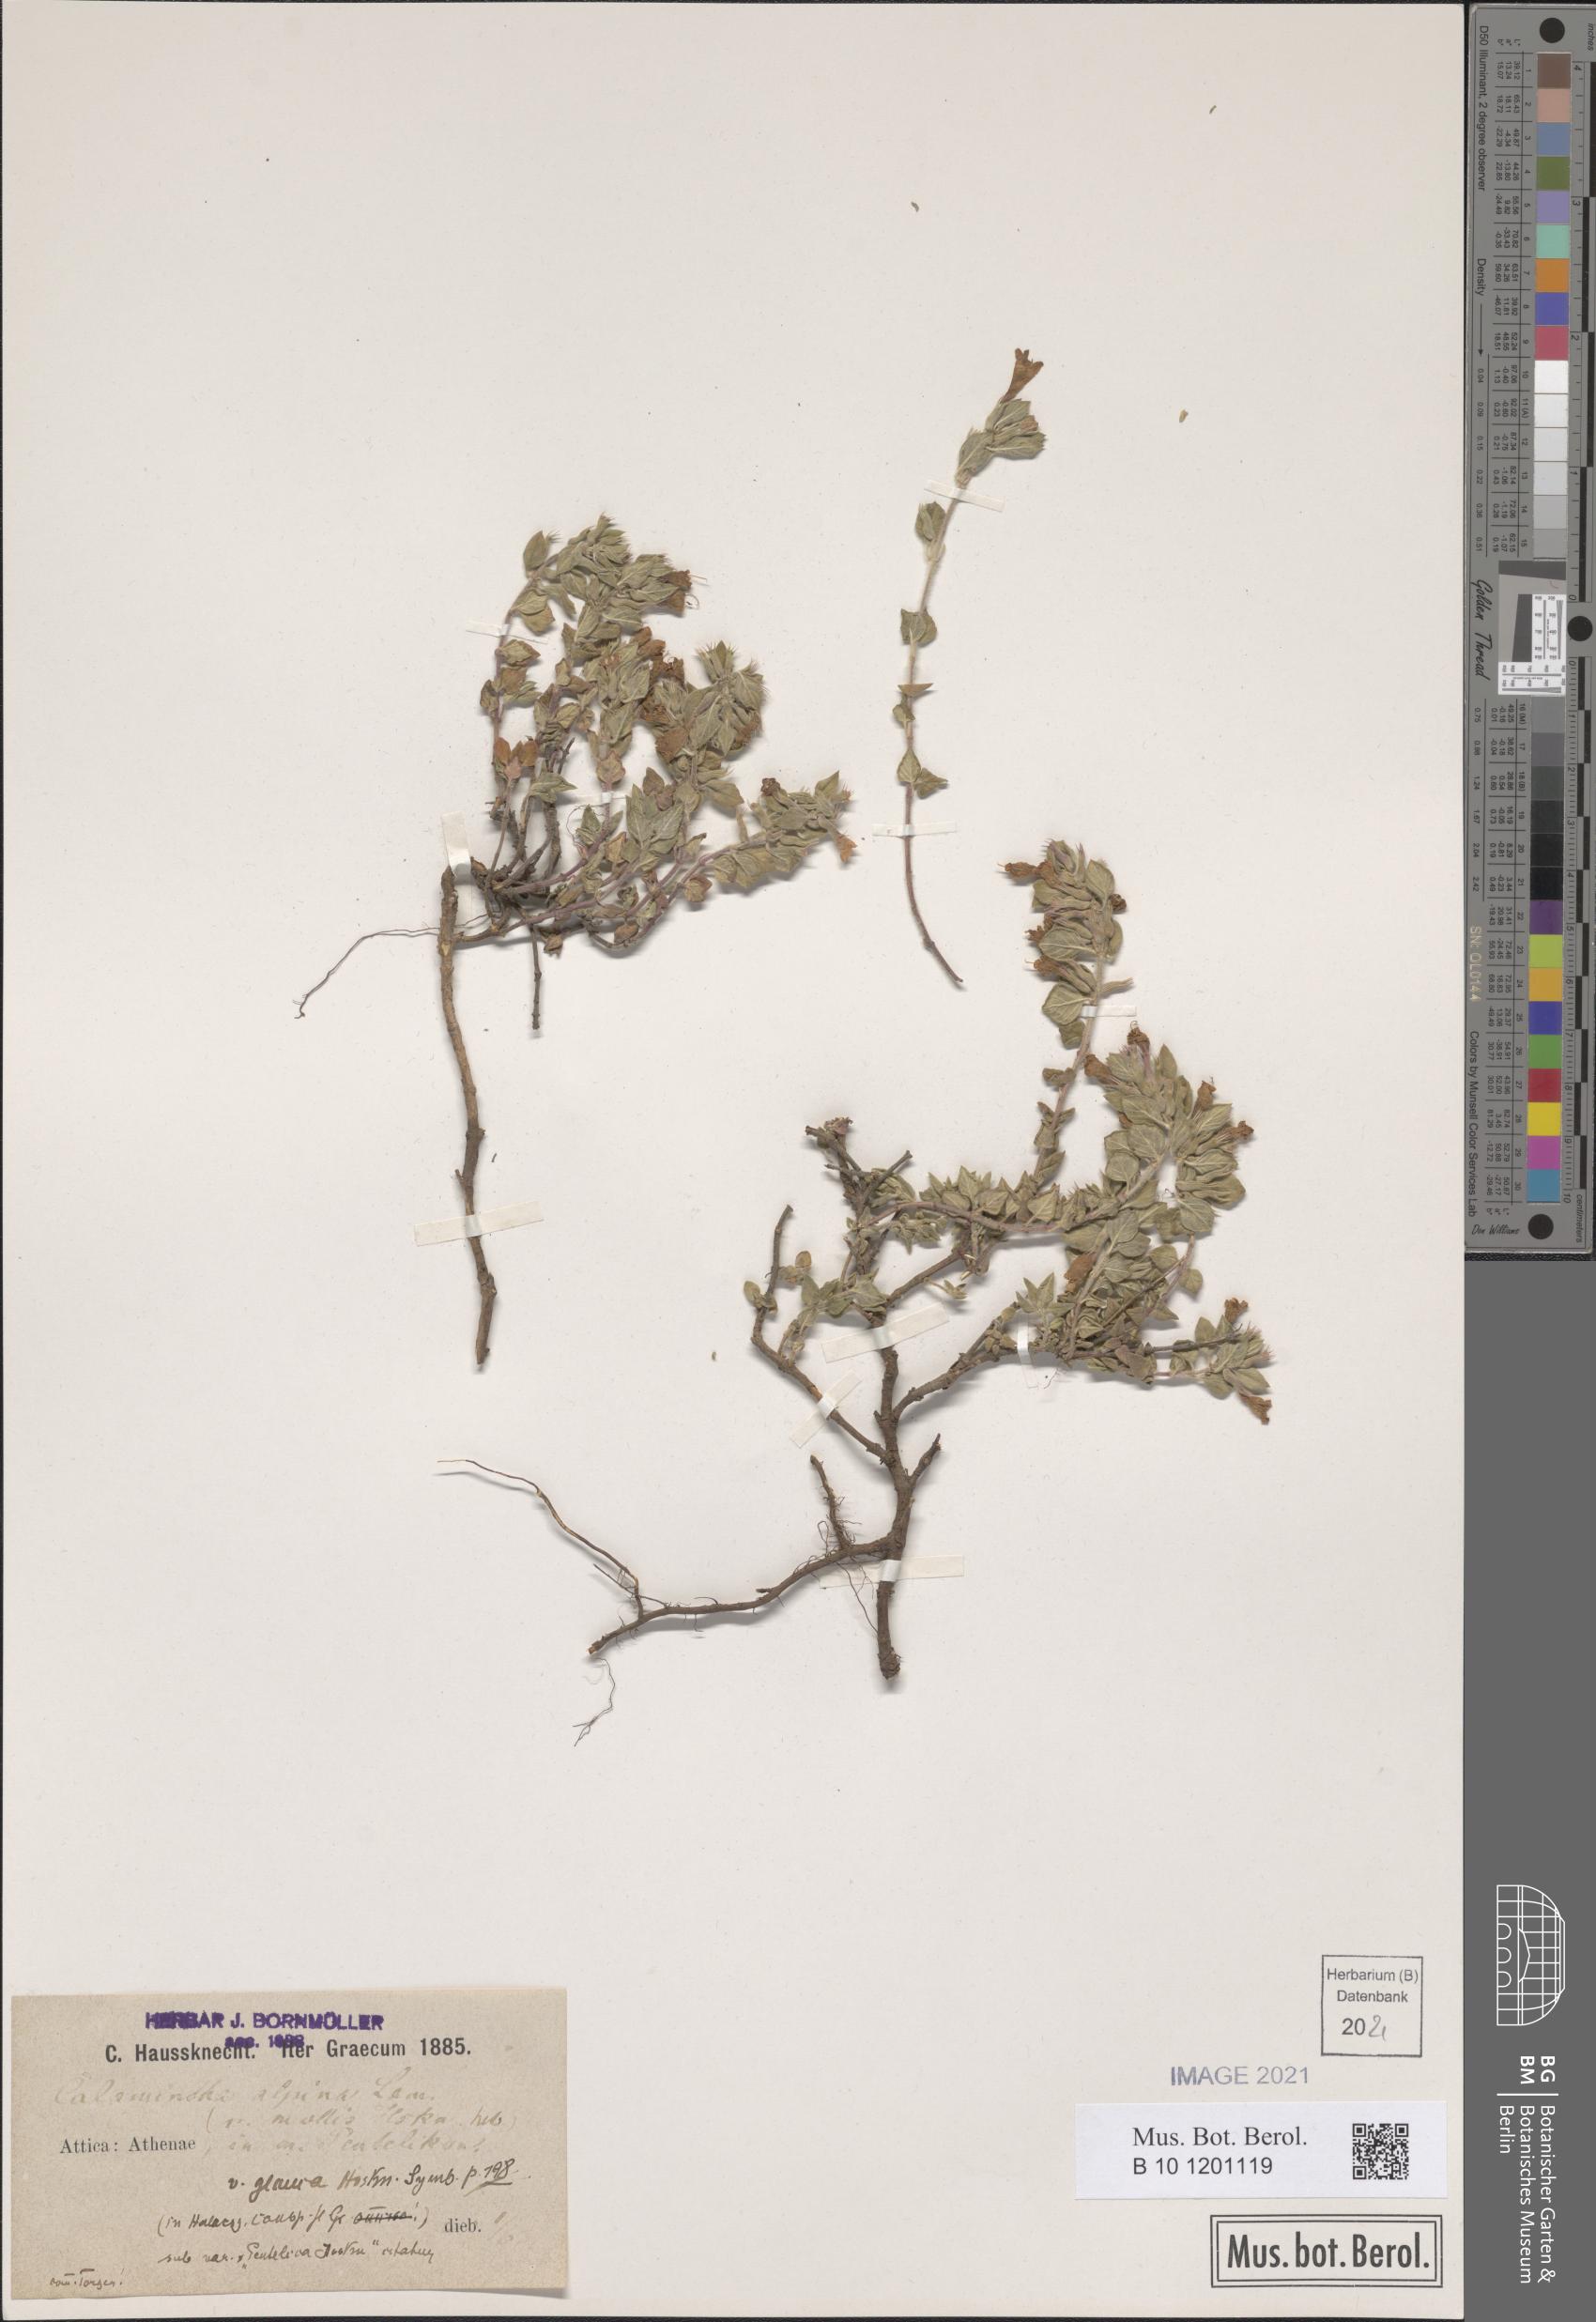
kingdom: Plantae
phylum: Tracheophyta
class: Magnoliopsida
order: Lamiales
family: Lamiaceae
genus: Clinopodium
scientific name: Clinopodium alpinum
